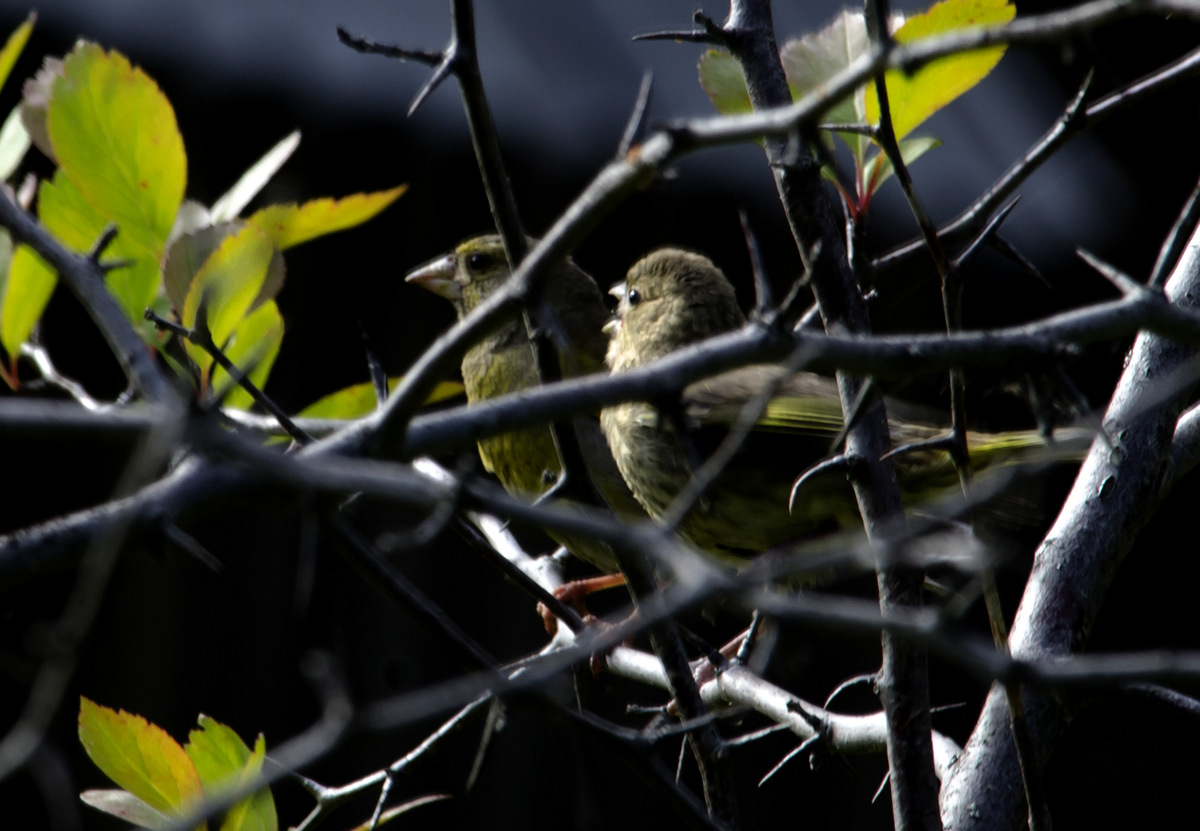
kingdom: Plantae
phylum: Tracheophyta
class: Liliopsida
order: Poales
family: Poaceae
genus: Chloris
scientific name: Chloris chloris
